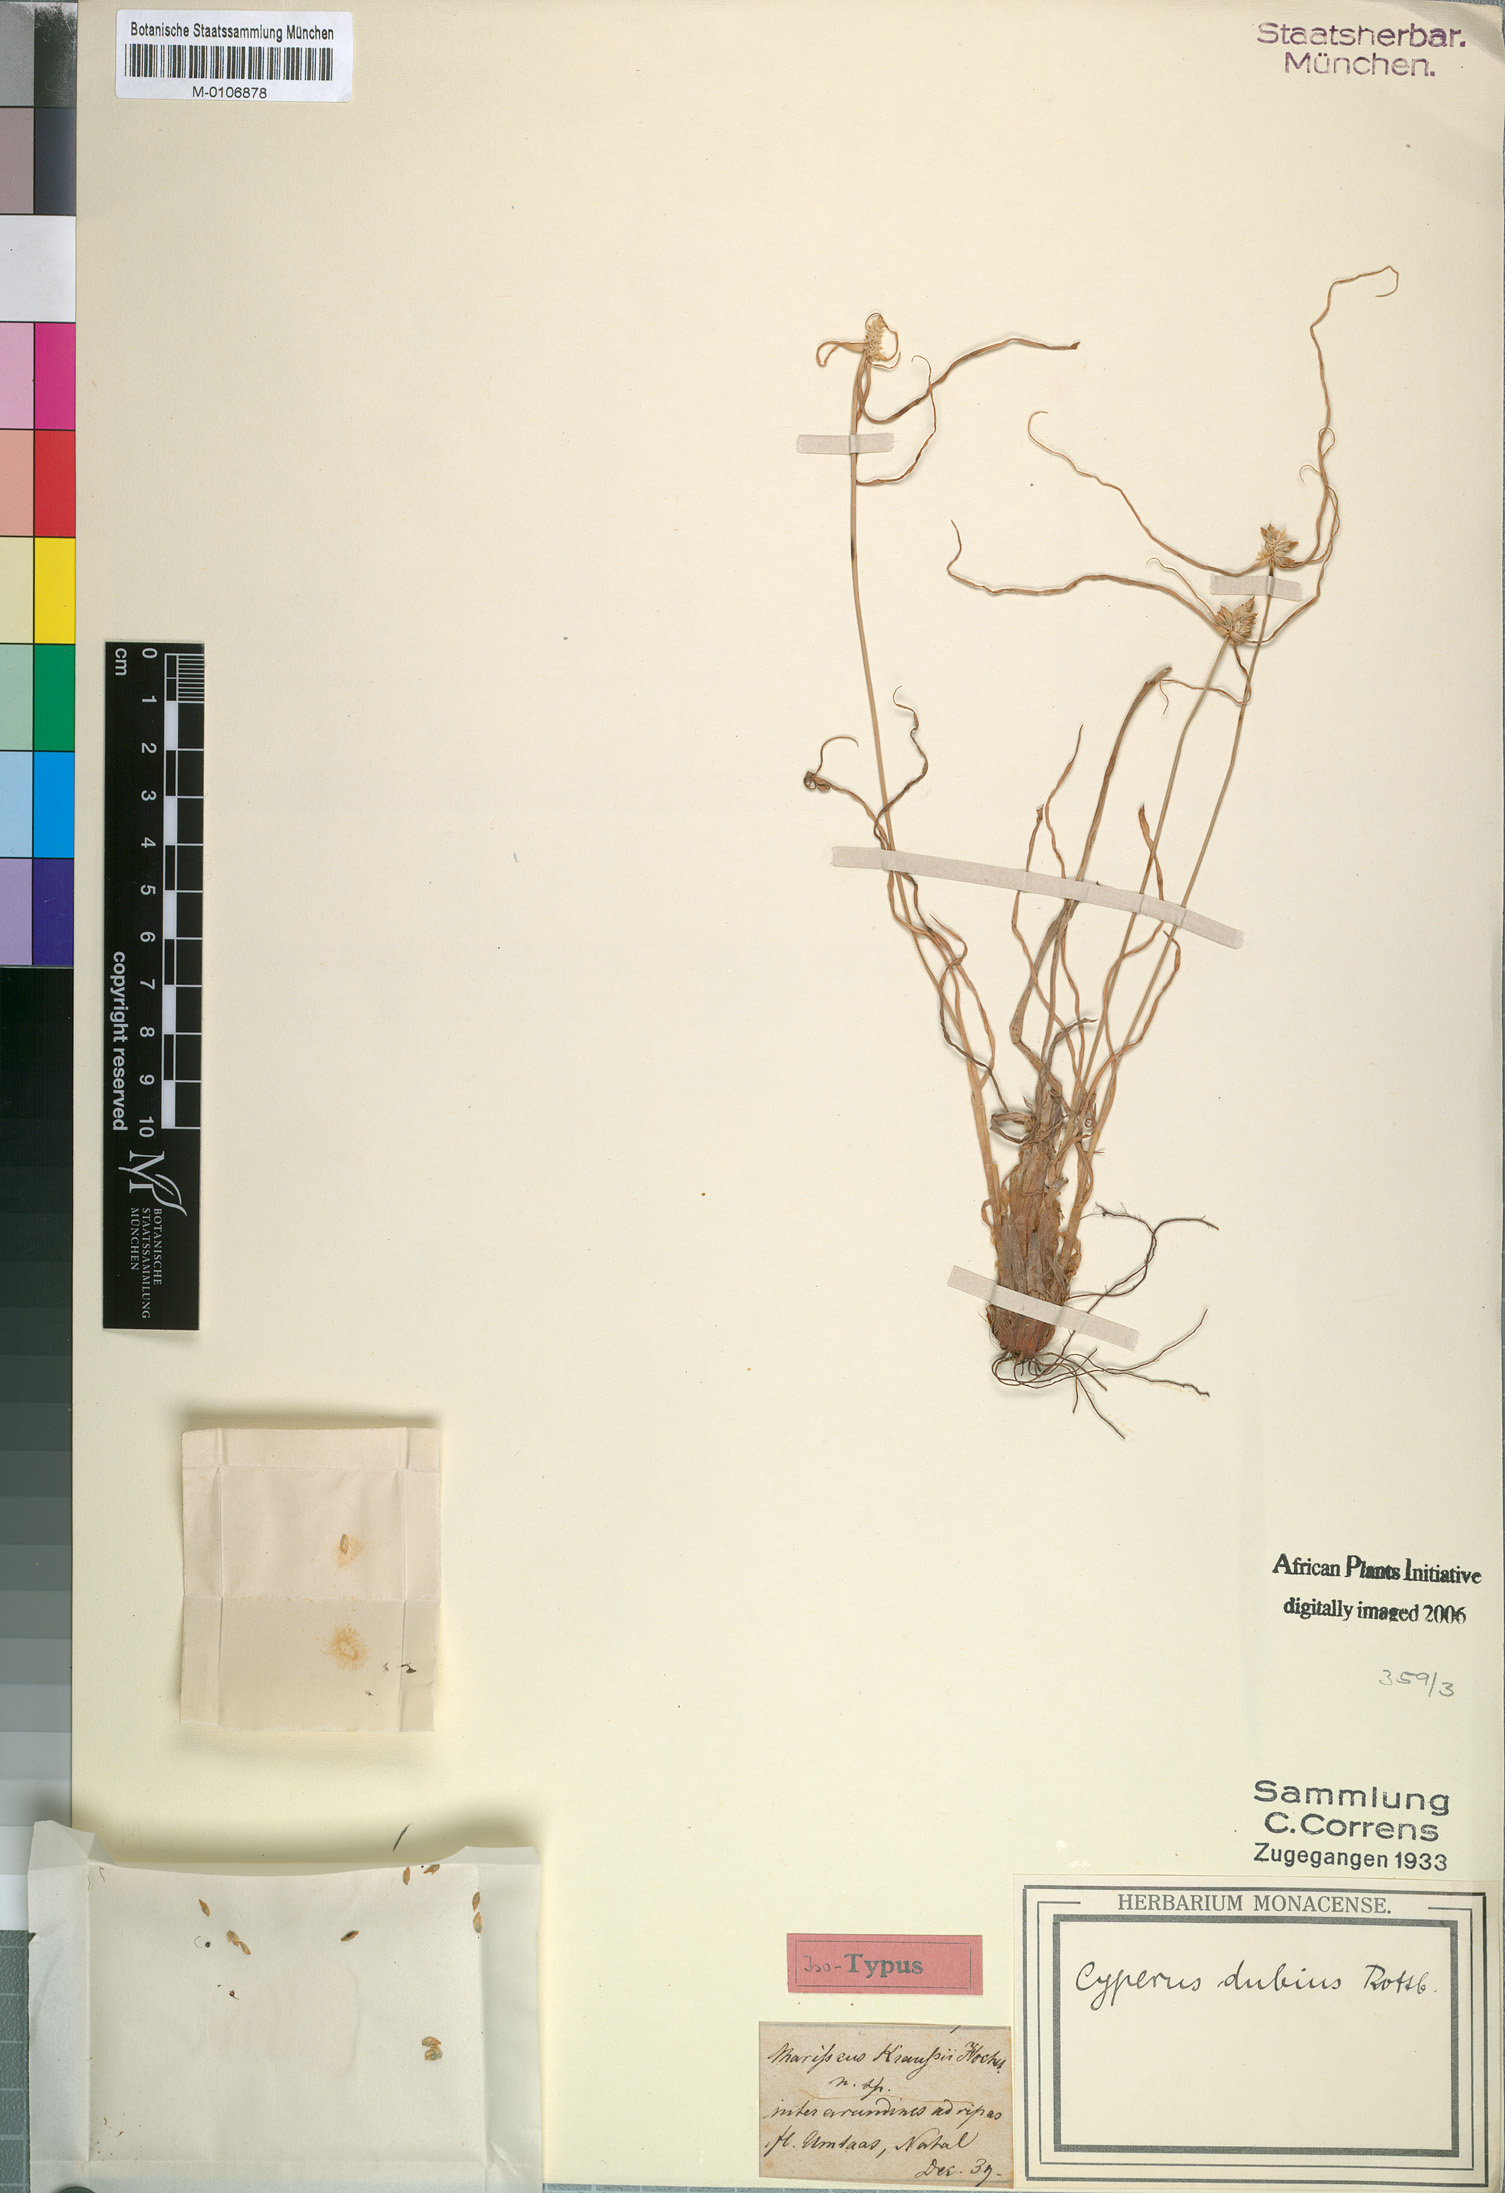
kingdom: Plantae
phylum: Tracheophyta
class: Liliopsida
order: Poales
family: Cyperaceae
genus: Cyperus
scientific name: Cyperus dubius
